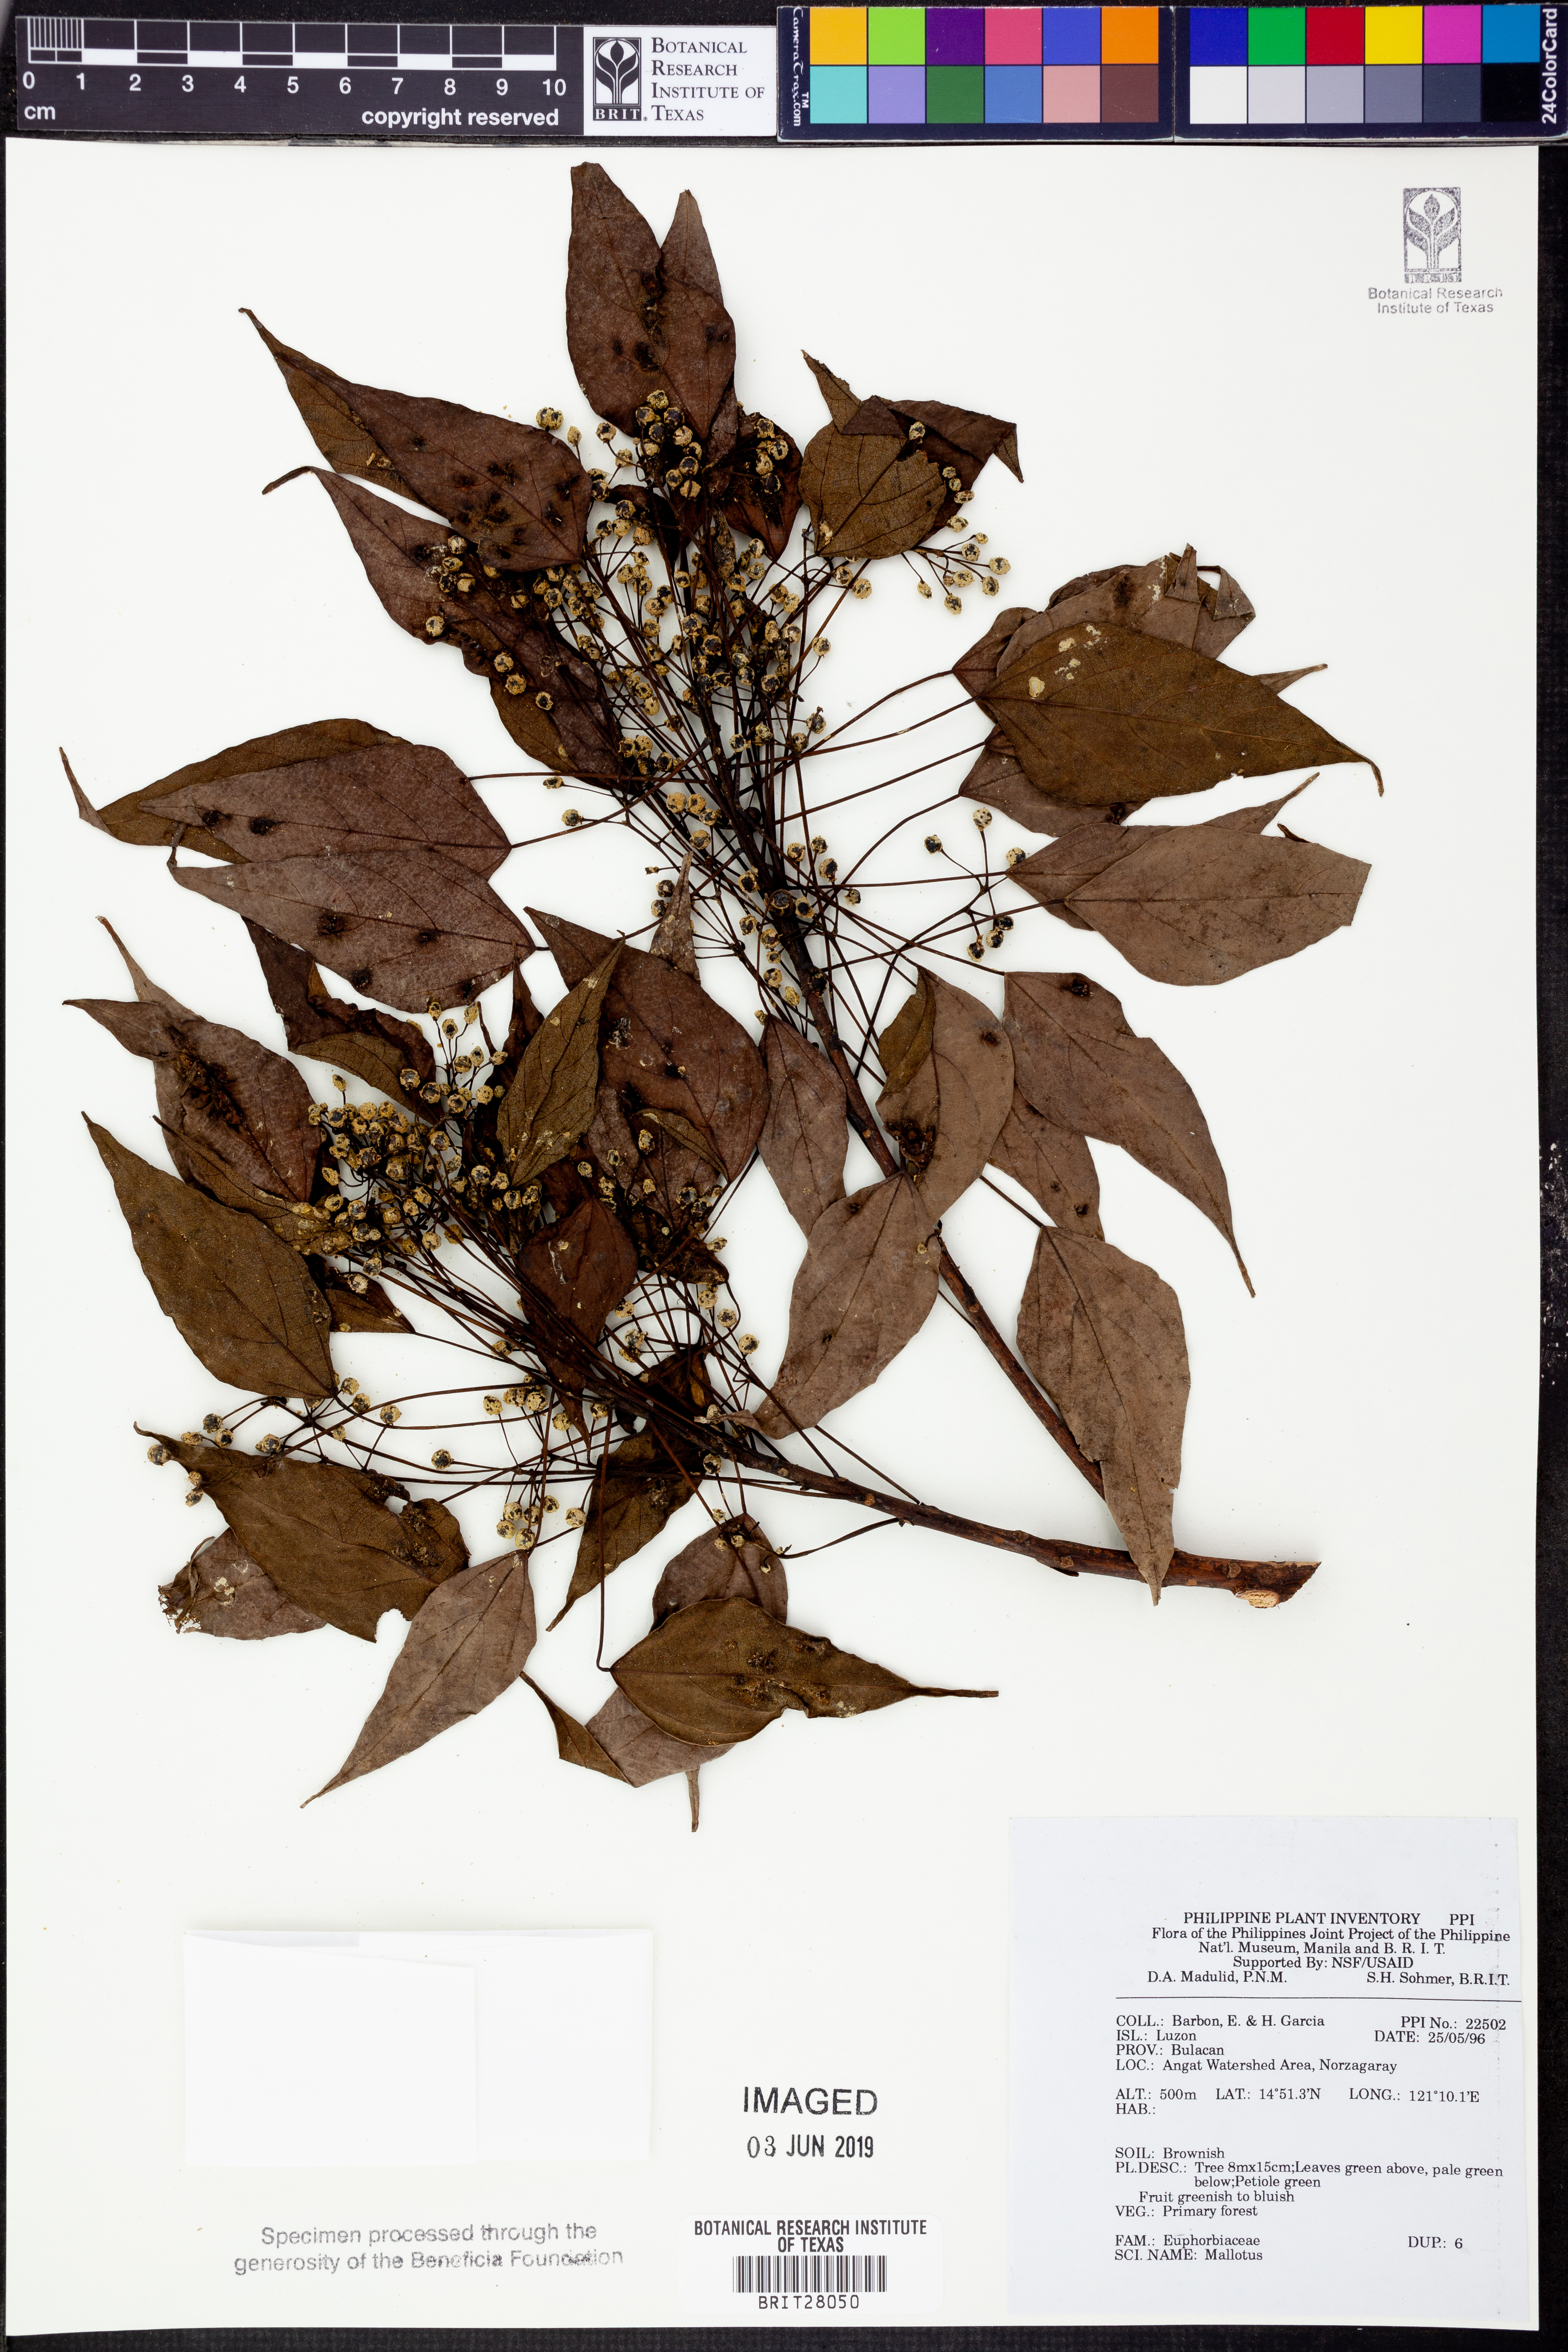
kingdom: Plantae
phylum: Tracheophyta
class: Magnoliopsida
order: Malpighiales
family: Euphorbiaceae
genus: Mallotus
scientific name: Mallotus
